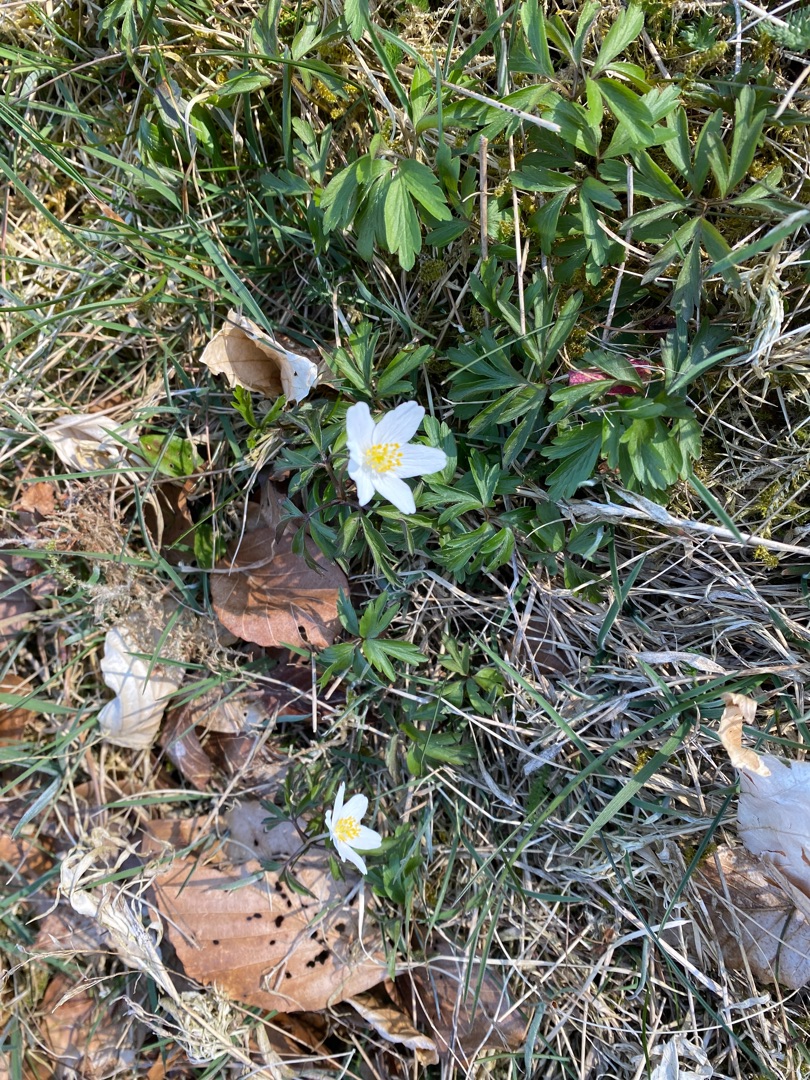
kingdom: Plantae
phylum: Tracheophyta
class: Magnoliopsida
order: Ranunculales
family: Ranunculaceae
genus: Anemone
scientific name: Anemone nemorosa
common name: Hvid anemone
